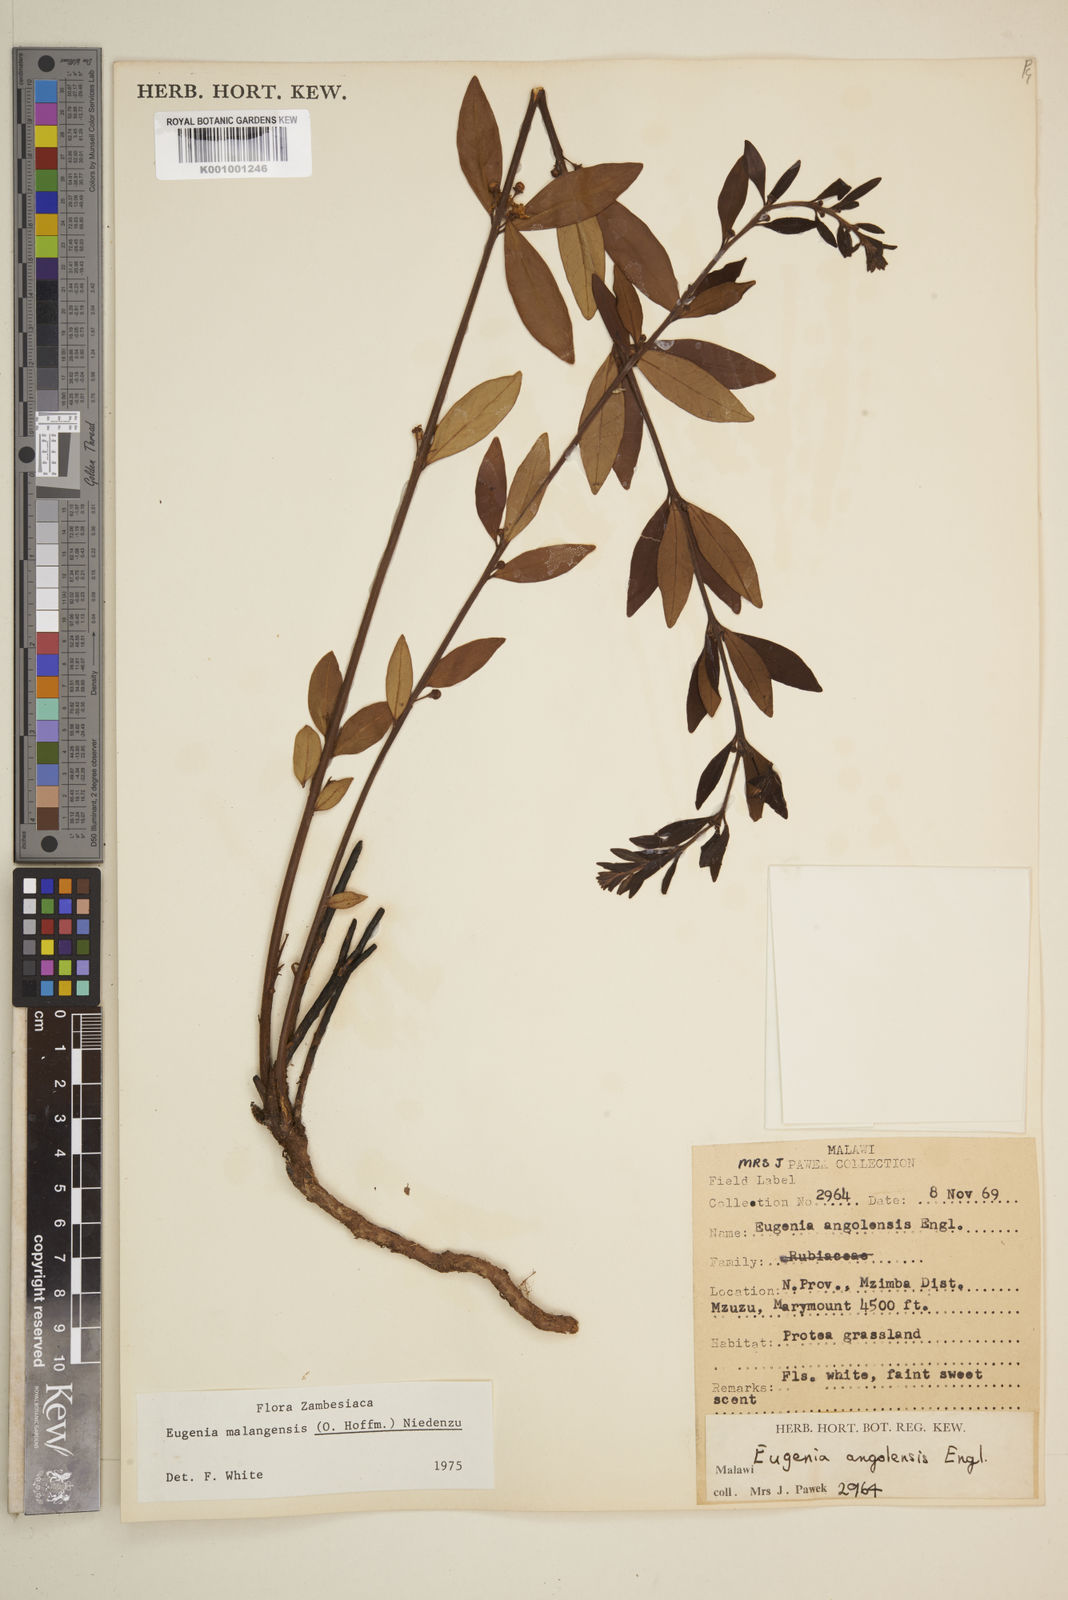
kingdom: Plantae
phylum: Tracheophyta
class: Magnoliopsida
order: Myrtales
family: Myrtaceae
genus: Eugenia
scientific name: Eugenia malangensis
